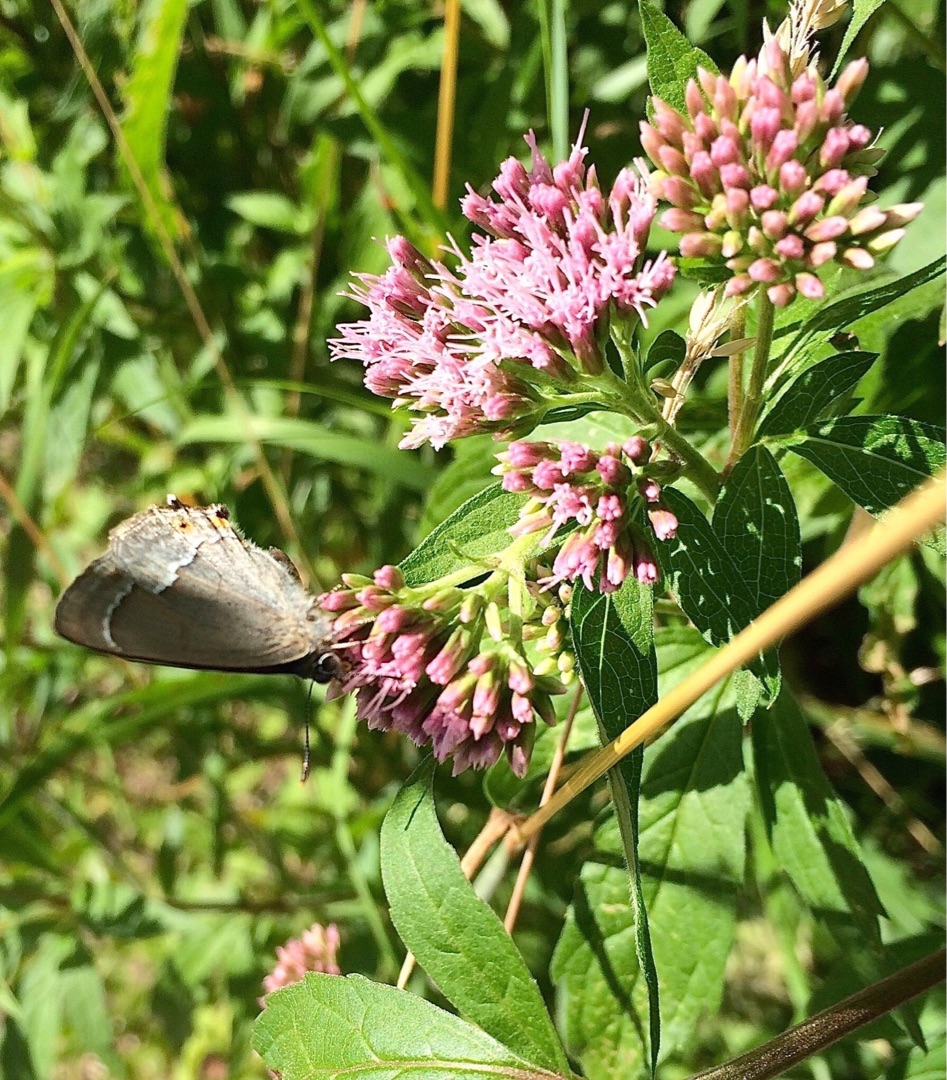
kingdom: Animalia
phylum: Arthropoda
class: Insecta
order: Lepidoptera
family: Lycaenidae
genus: Quercusia
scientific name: Quercusia quercus
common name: Blåhale
